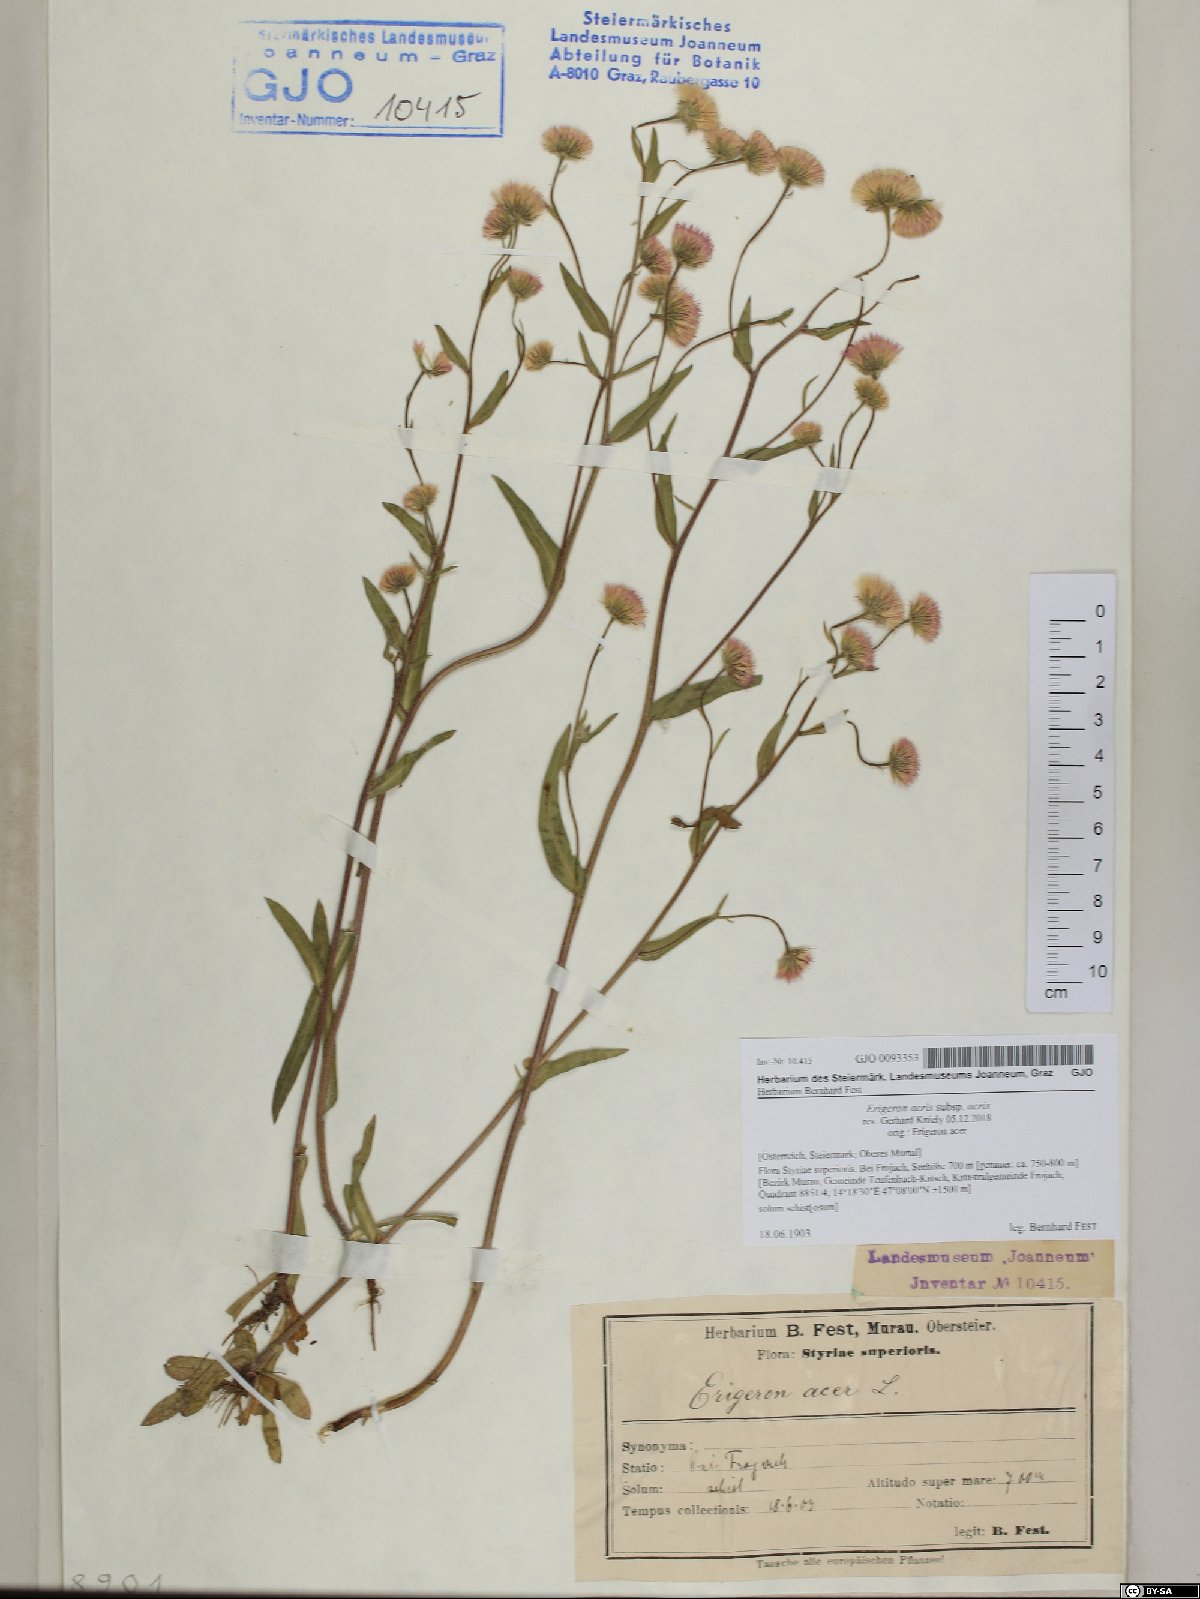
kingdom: Plantae
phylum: Tracheophyta
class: Magnoliopsida
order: Asterales
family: Asteraceae
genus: Erigeron
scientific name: Erigeron acris
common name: Blue fleabane
